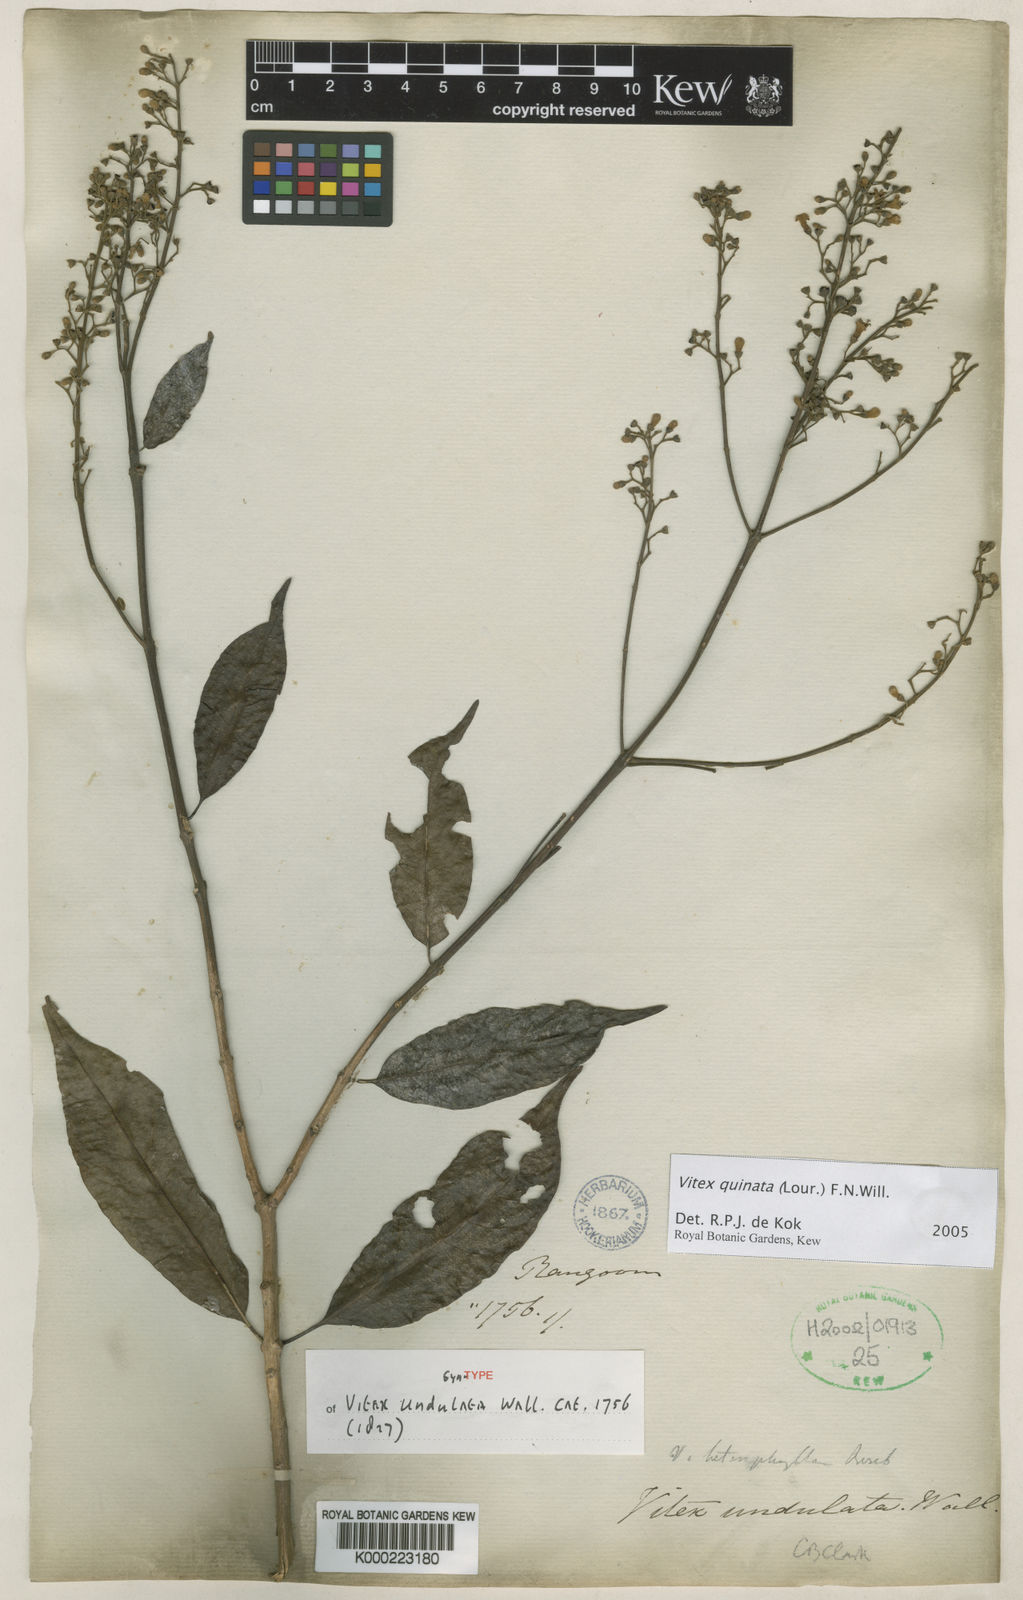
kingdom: Plantae
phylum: Tracheophyta
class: Magnoliopsida
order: Lamiales
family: Lamiaceae
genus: Vitex
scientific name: Vitex quinata
